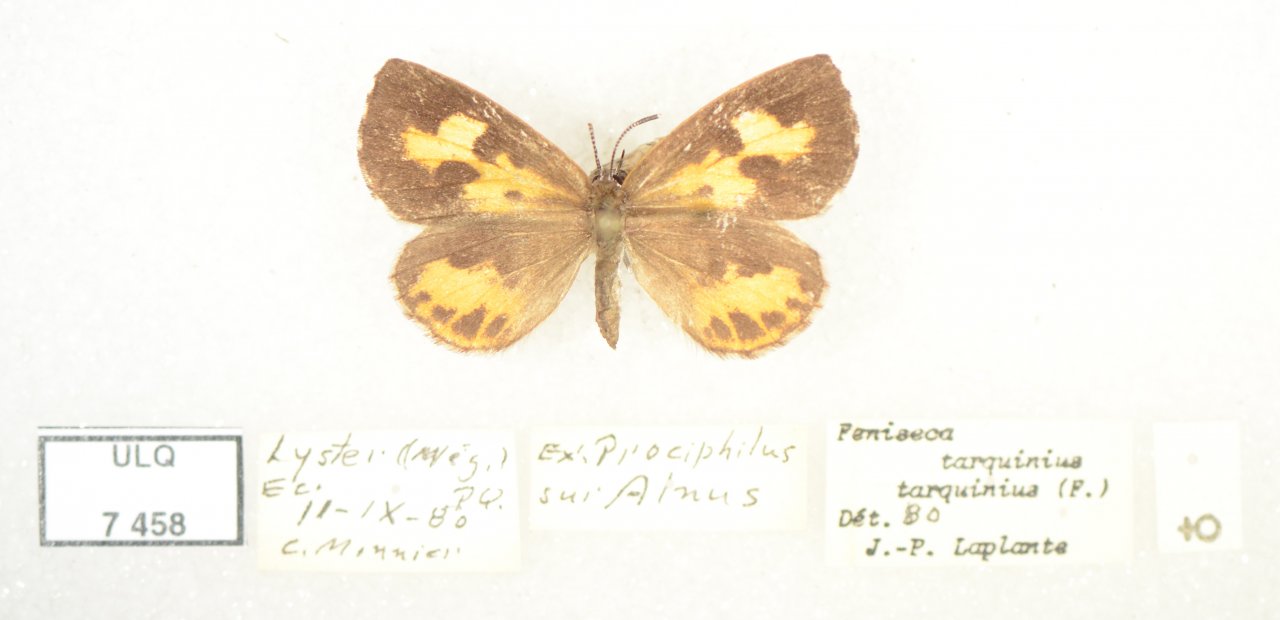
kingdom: Animalia
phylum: Arthropoda
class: Insecta
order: Lepidoptera
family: Lycaenidae
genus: Feniseca
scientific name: Feniseca tarquinius
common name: Harvester
